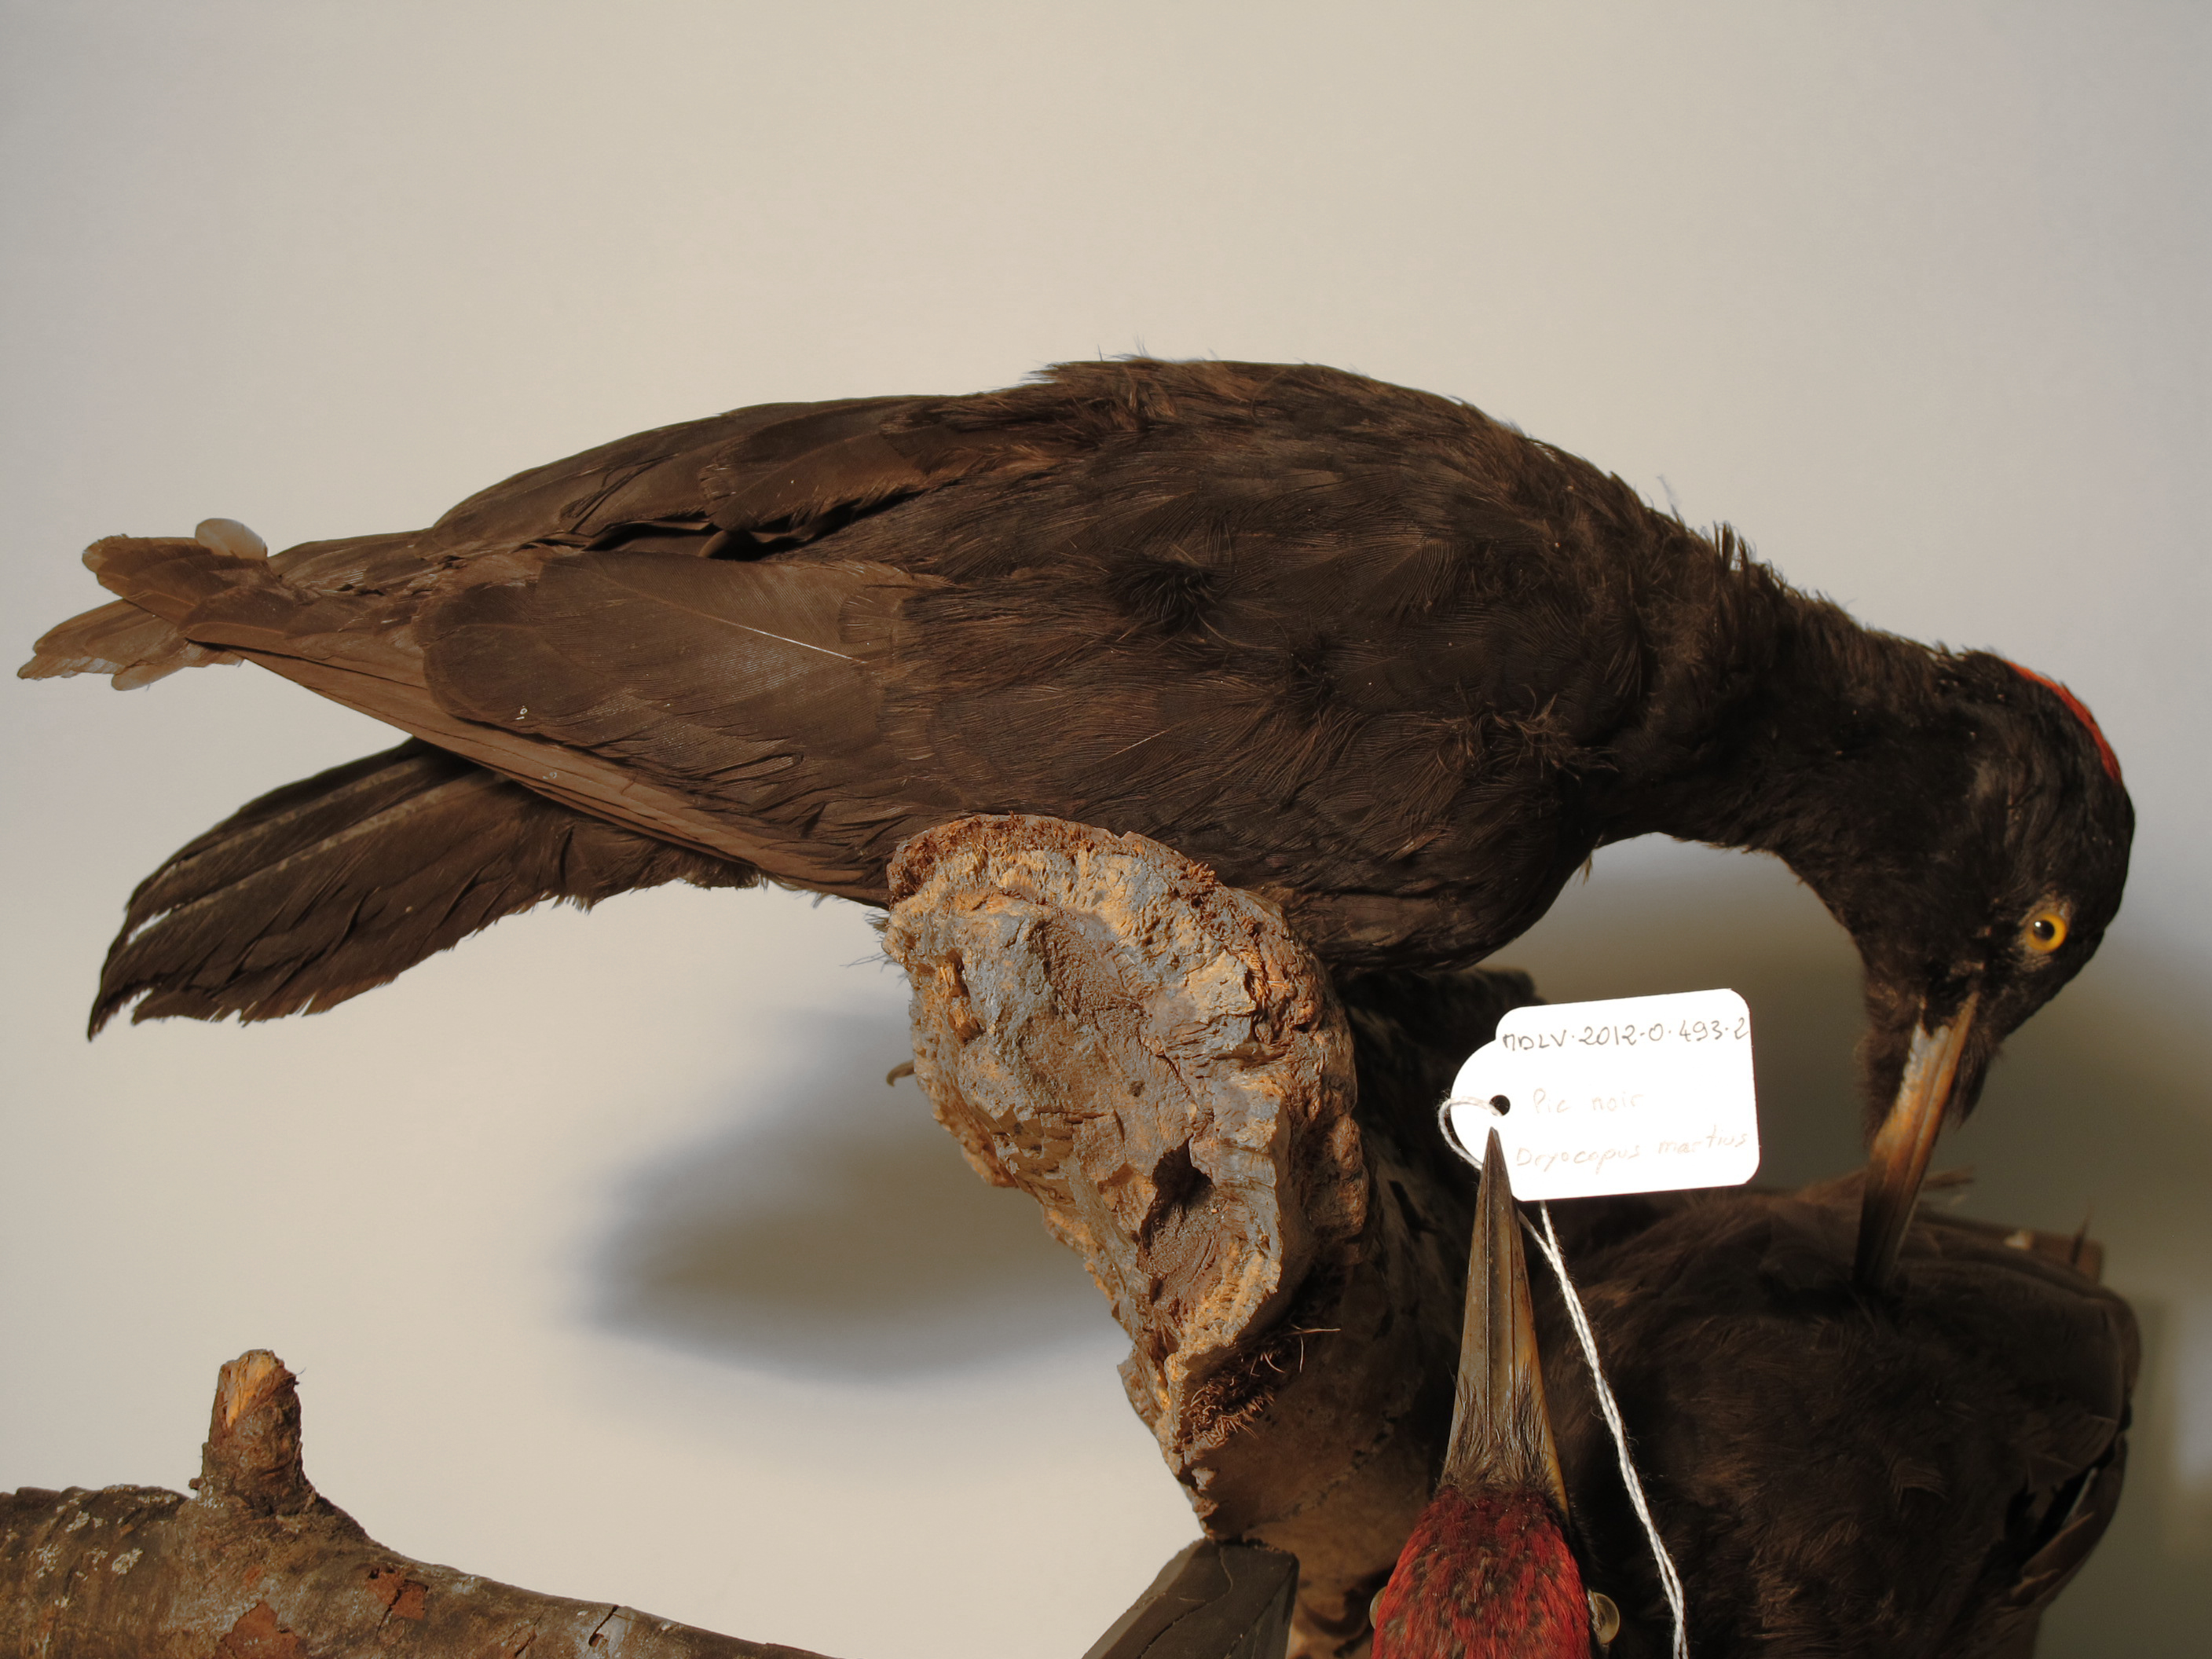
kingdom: Animalia
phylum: Chordata
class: Aves
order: Piciformes
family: Picidae
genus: Dryocopus
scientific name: Dryocopus martius
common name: Black Woodpecker
